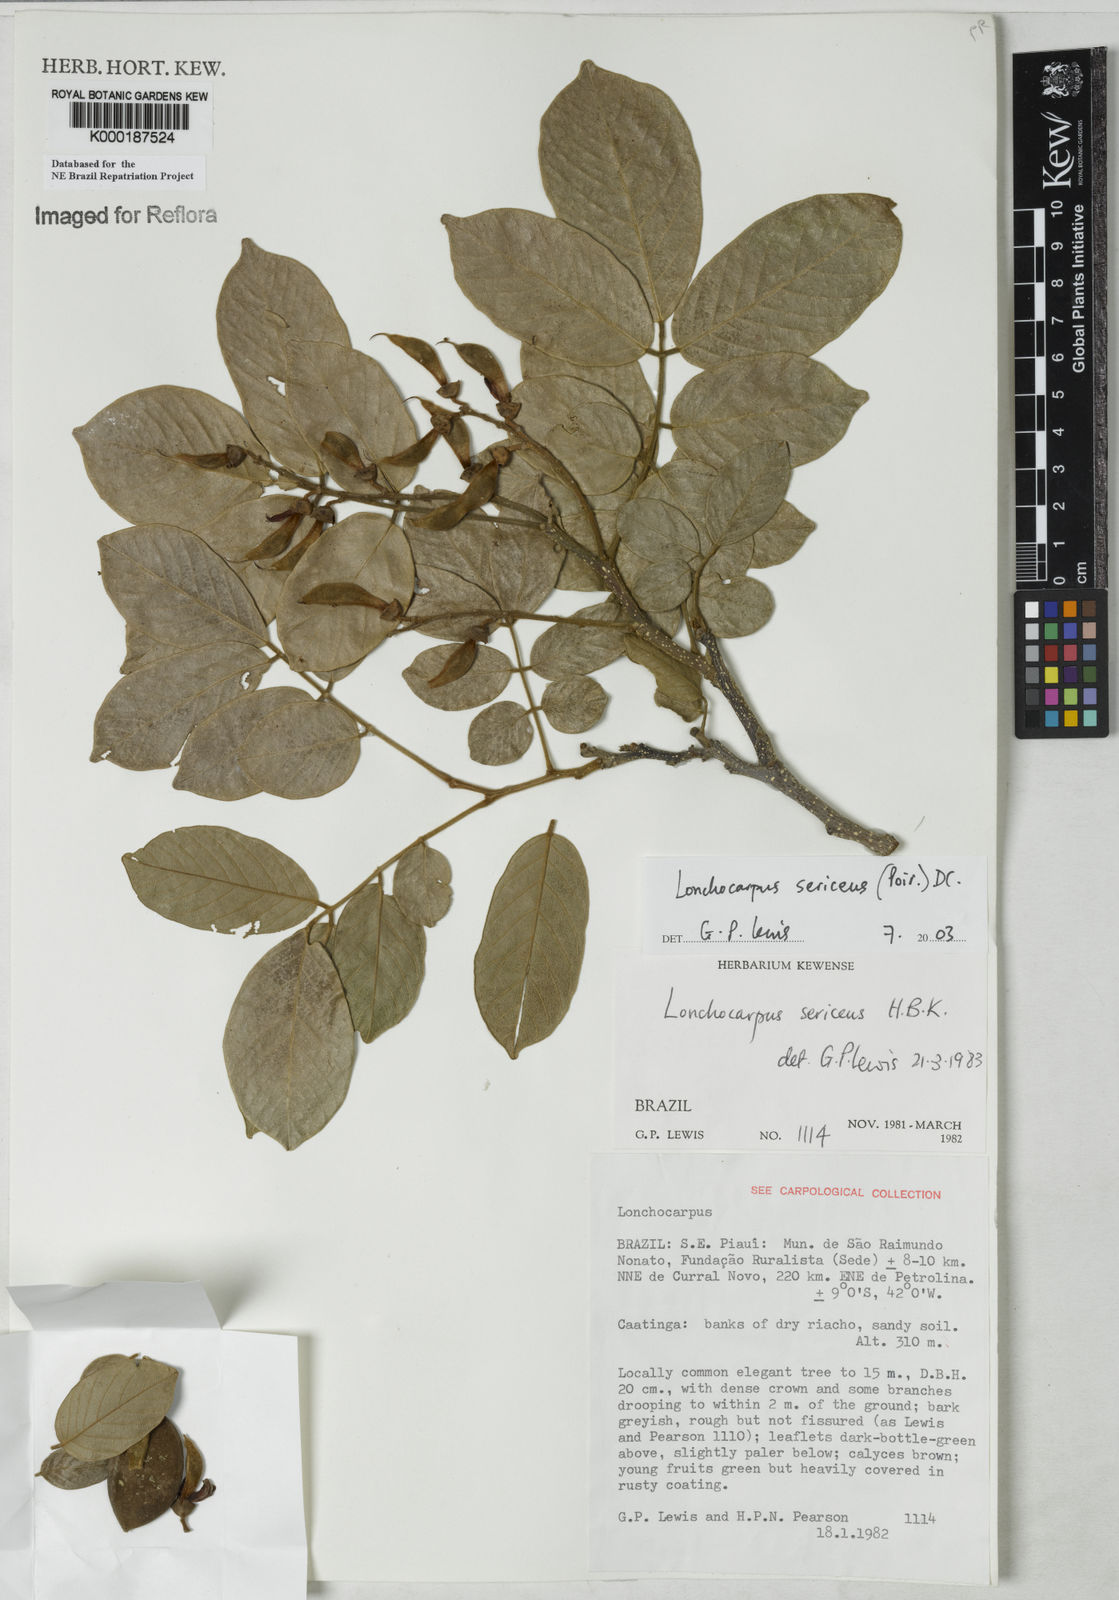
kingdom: Plantae
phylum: Tracheophyta
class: Magnoliopsida
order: Fabales
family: Fabaceae
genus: Lonchocarpus
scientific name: Lonchocarpus sericeus
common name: Savonette
